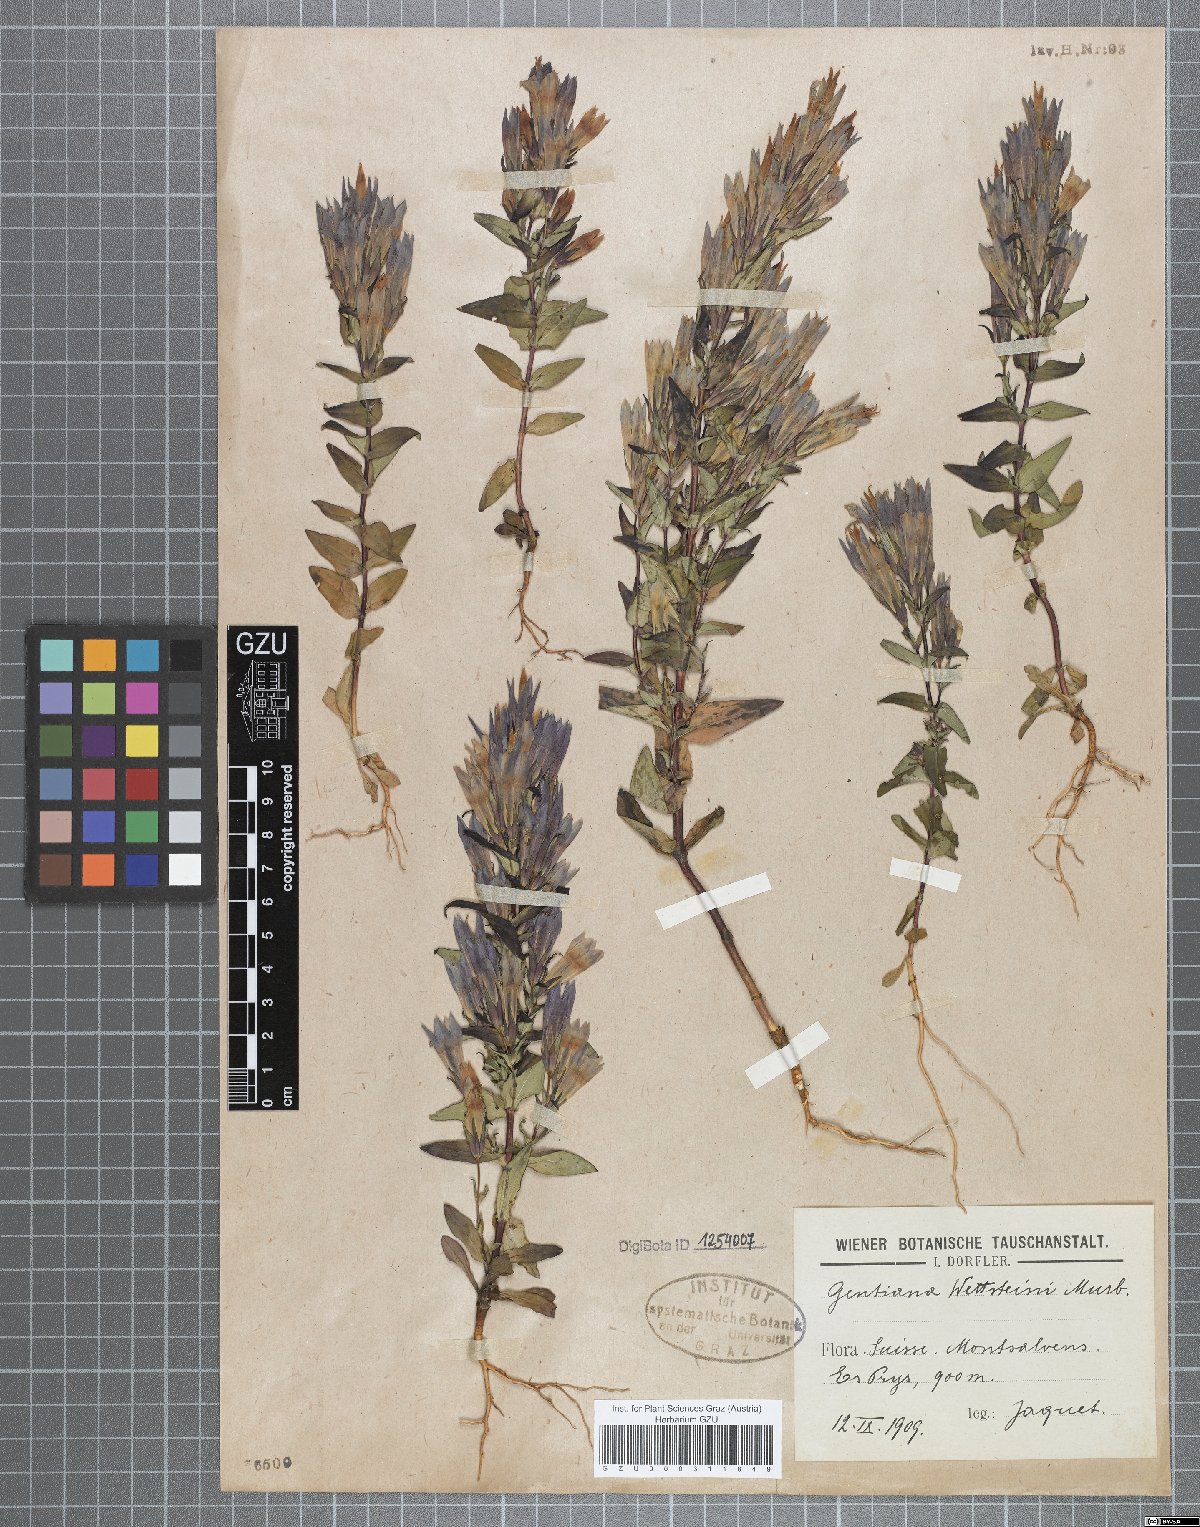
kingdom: Plantae
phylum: Tracheophyta
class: Magnoliopsida
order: Gentianales
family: Gentianaceae
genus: Gentianella
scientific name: Gentianella rhaetica
